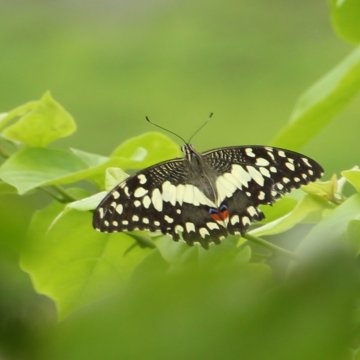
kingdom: Animalia
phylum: Arthropoda
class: Insecta
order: Lepidoptera
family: Papilionidae
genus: Papilio
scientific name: Papilio demoleus
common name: Lime Swallowtail
